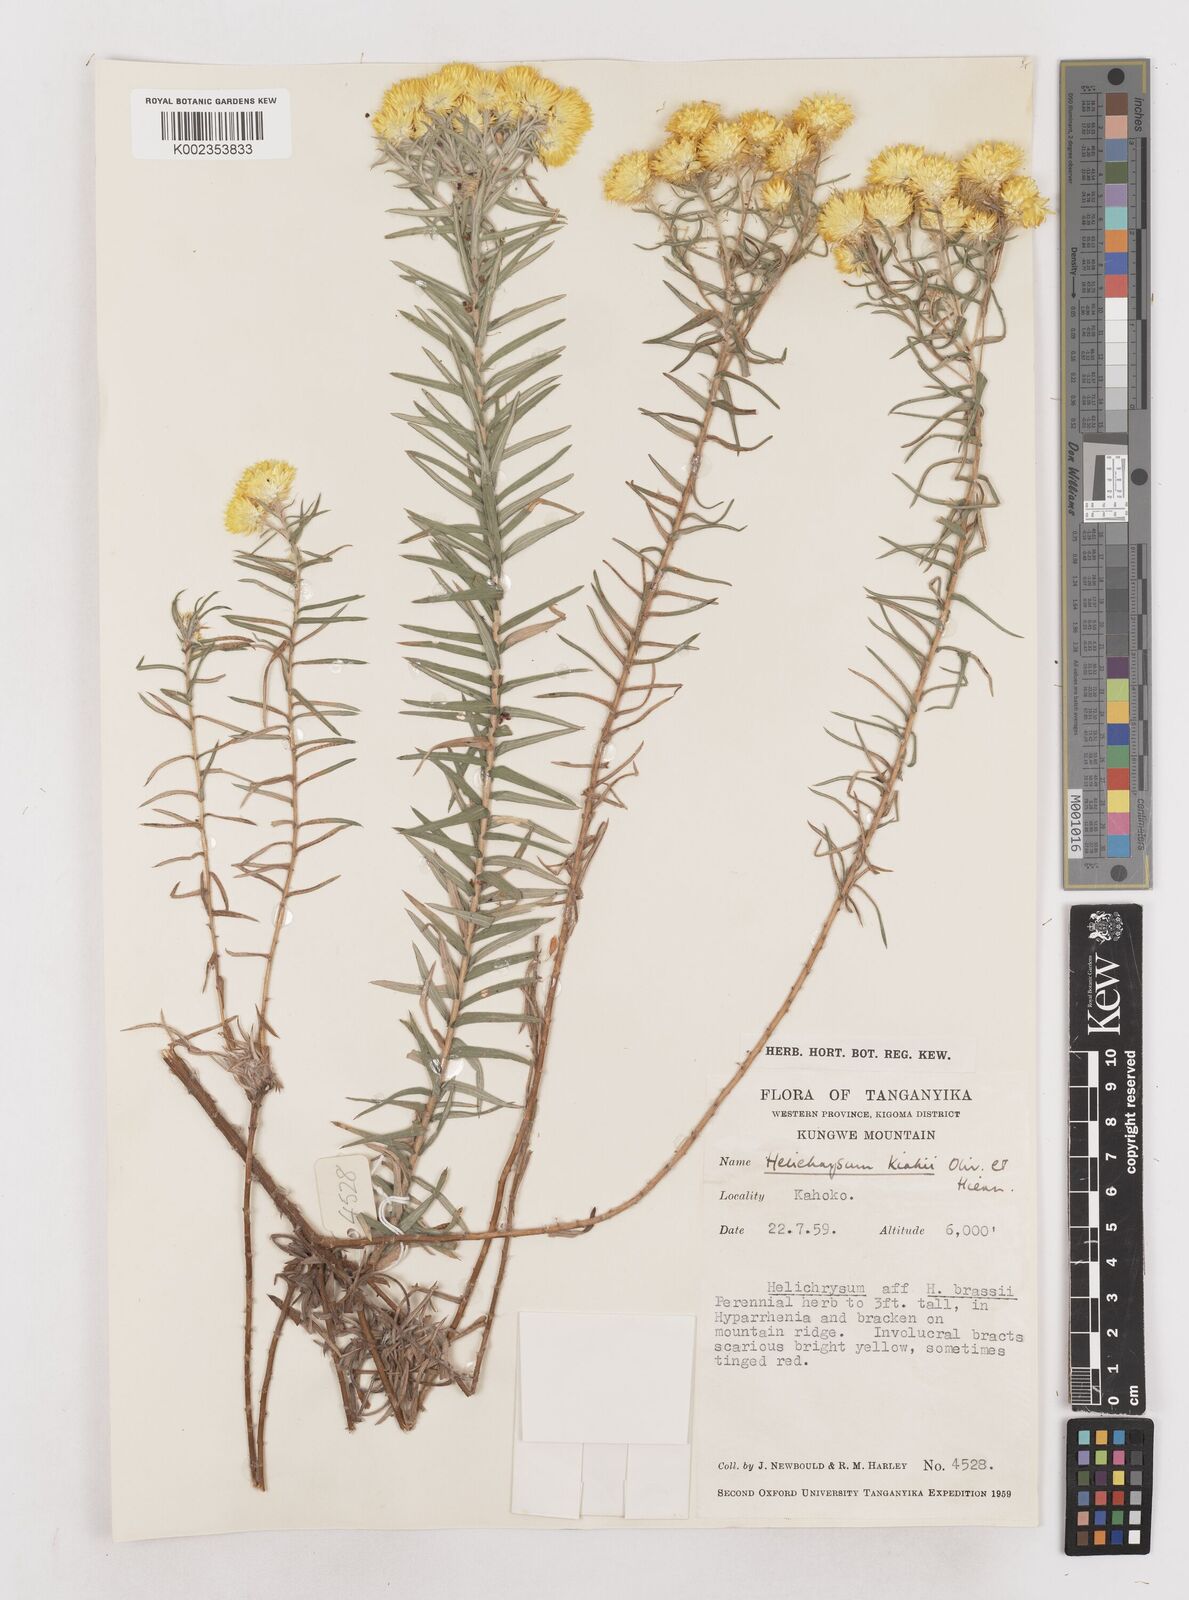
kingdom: Plantae
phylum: Tracheophyta
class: Magnoliopsida
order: Asterales
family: Asteraceae
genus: Helichrysum
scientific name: Helichrysum kirkii
